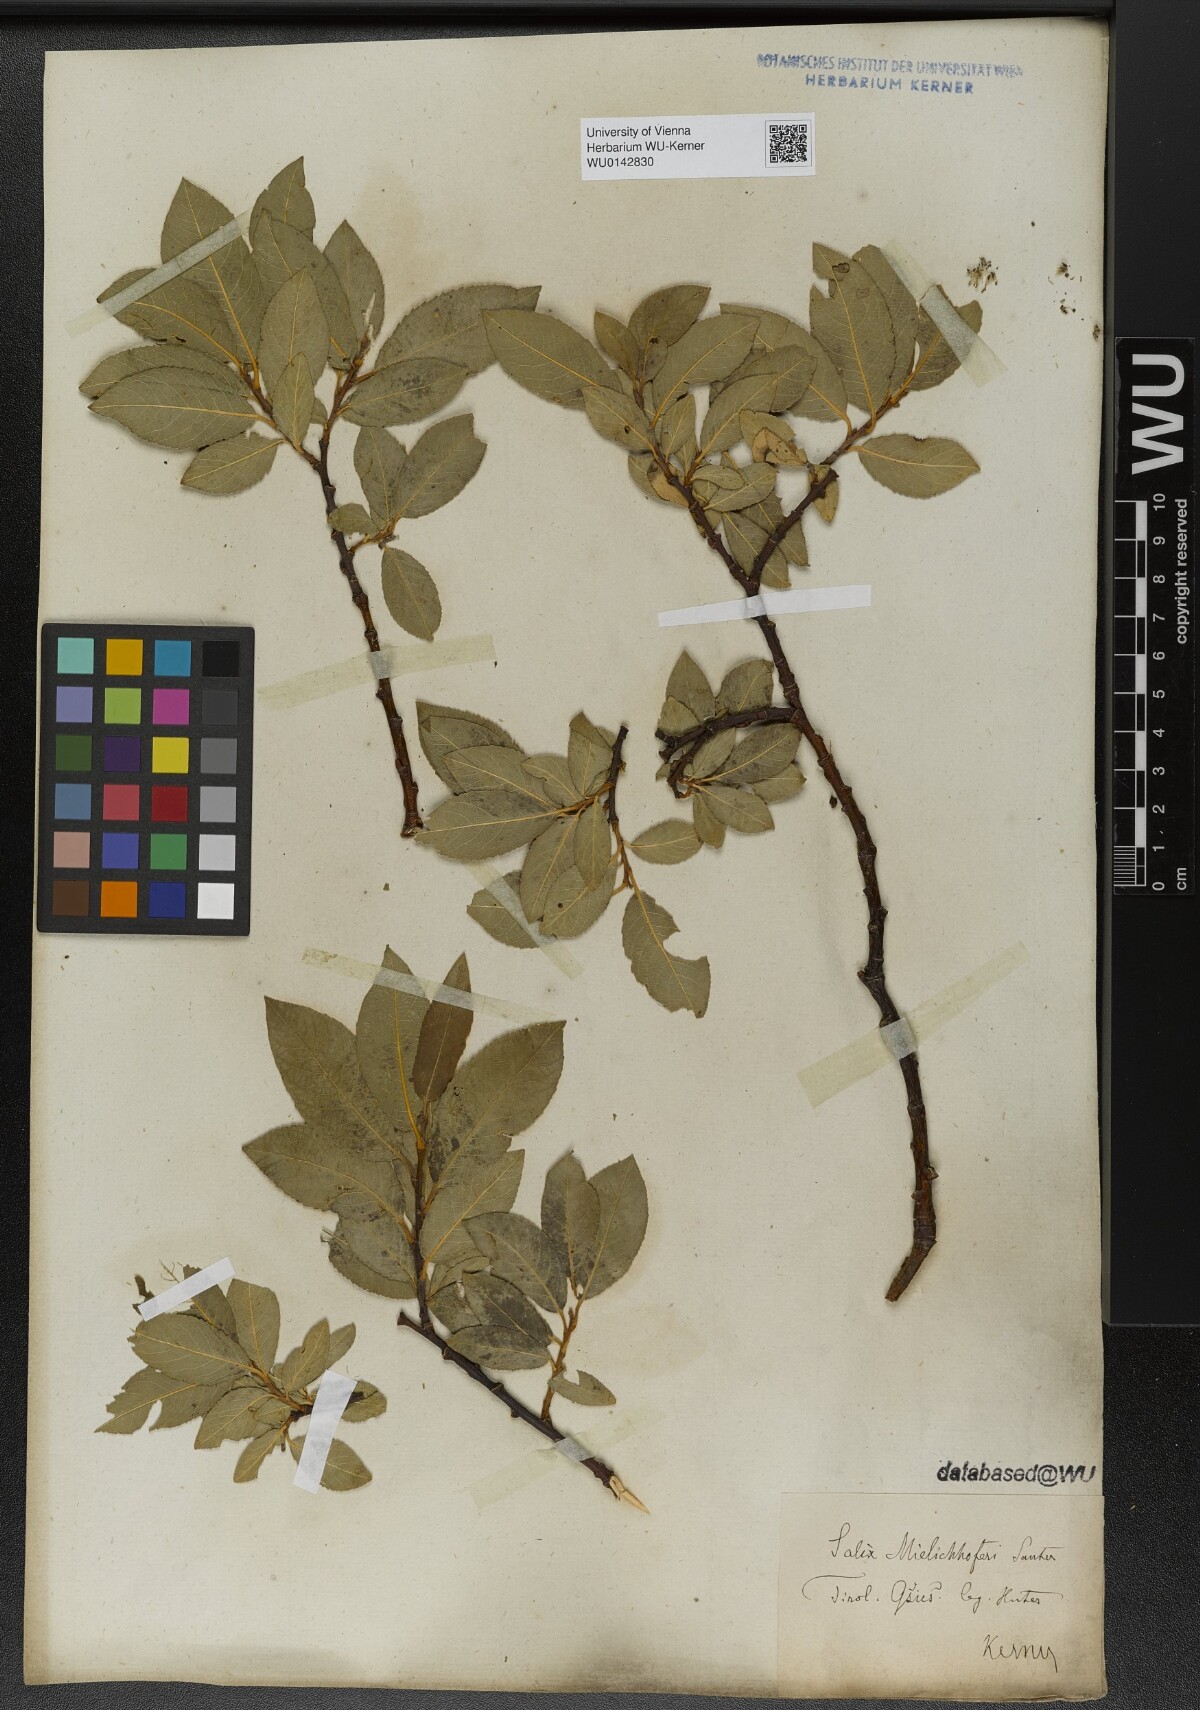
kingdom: Plantae
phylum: Tracheophyta
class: Magnoliopsida
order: Malpighiales
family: Salicaceae
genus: Salix
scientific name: Salix mielichhoferi
